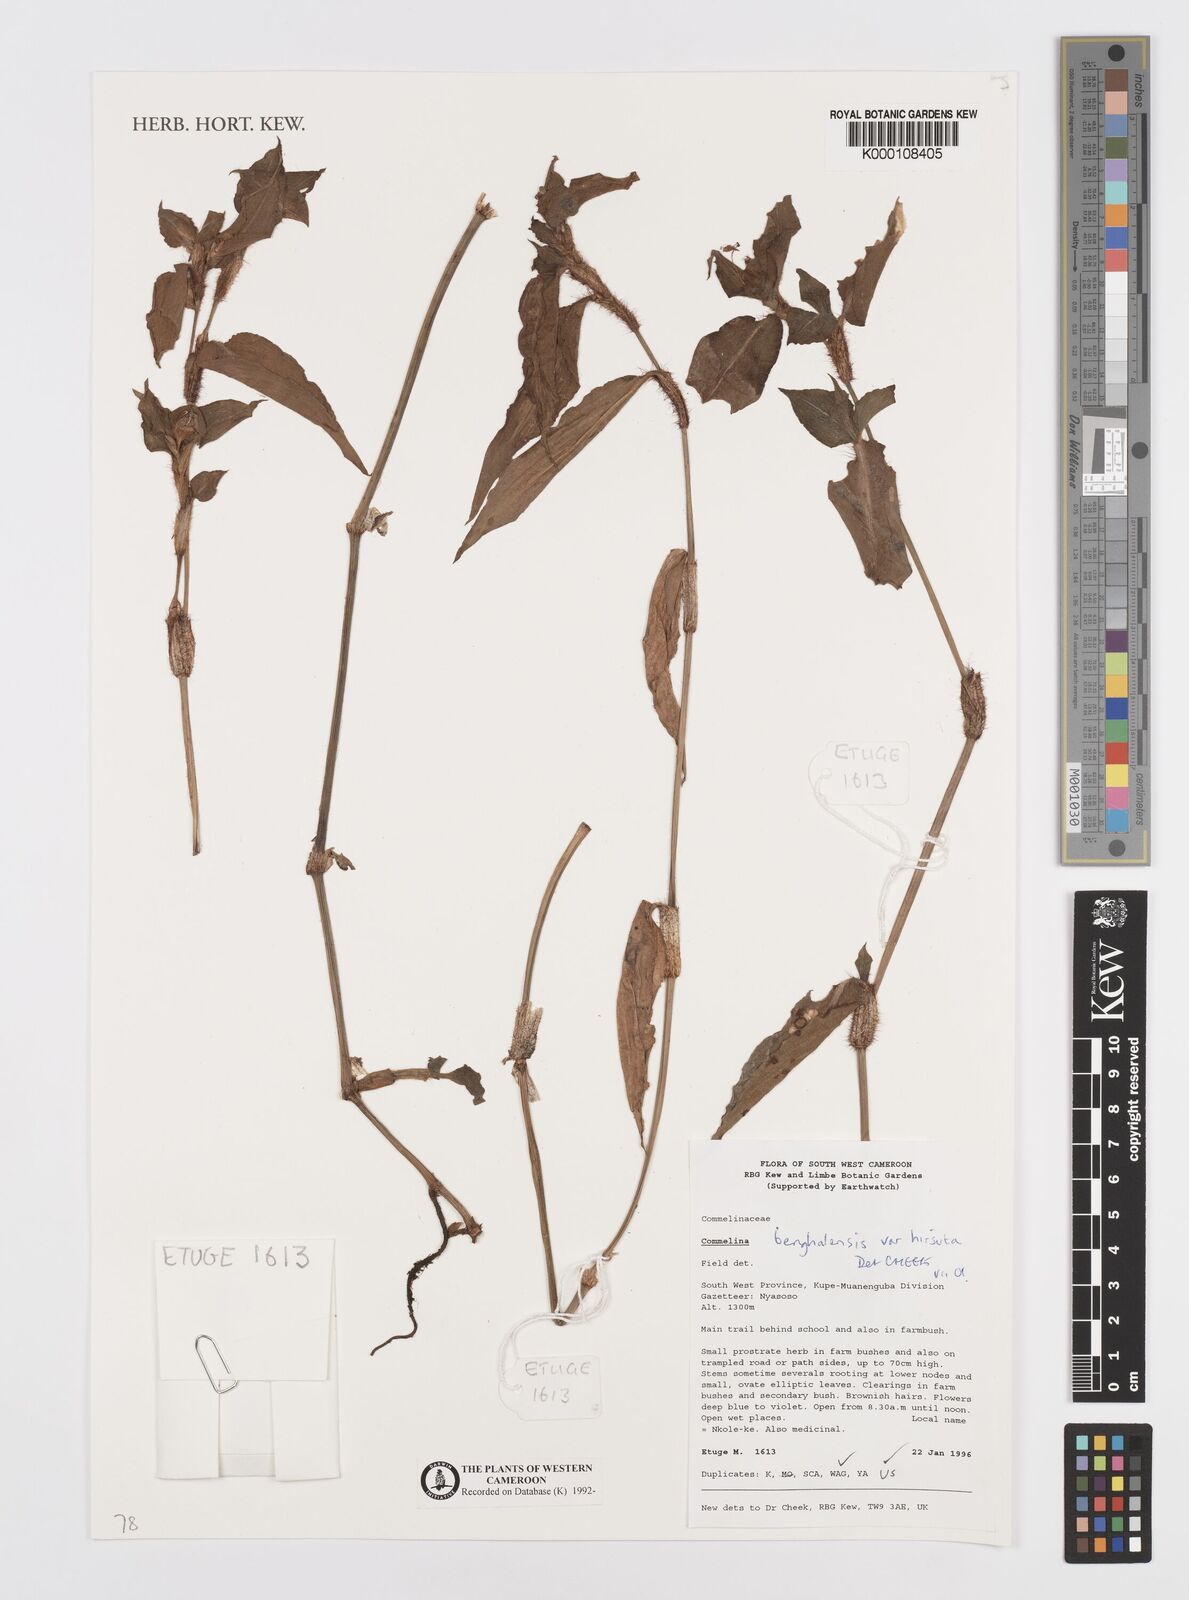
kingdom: Plantae
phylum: Tracheophyta
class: Liliopsida
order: Commelinales
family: Commelinaceae
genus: Commelina
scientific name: Commelina benghalensis
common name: Jio
